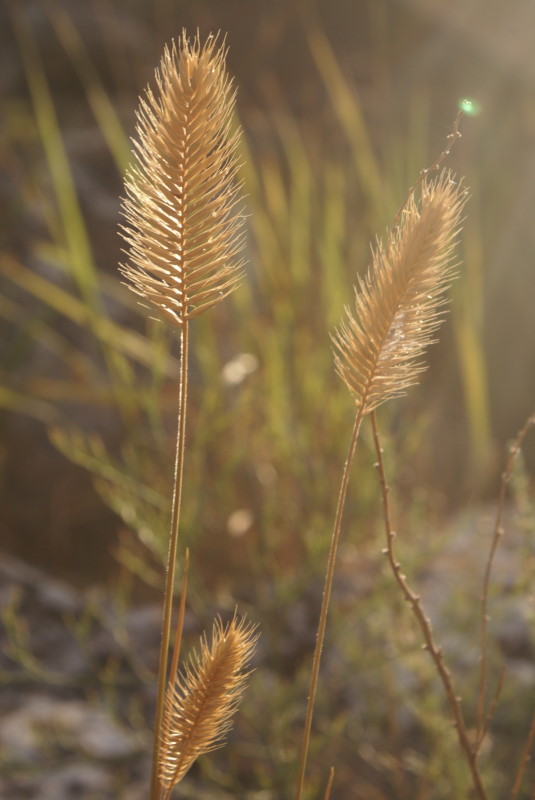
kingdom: Plantae
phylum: Tracheophyta
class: Liliopsida
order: Poales
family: Poaceae
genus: Eremopyrum
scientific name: Eremopyrum orientale
